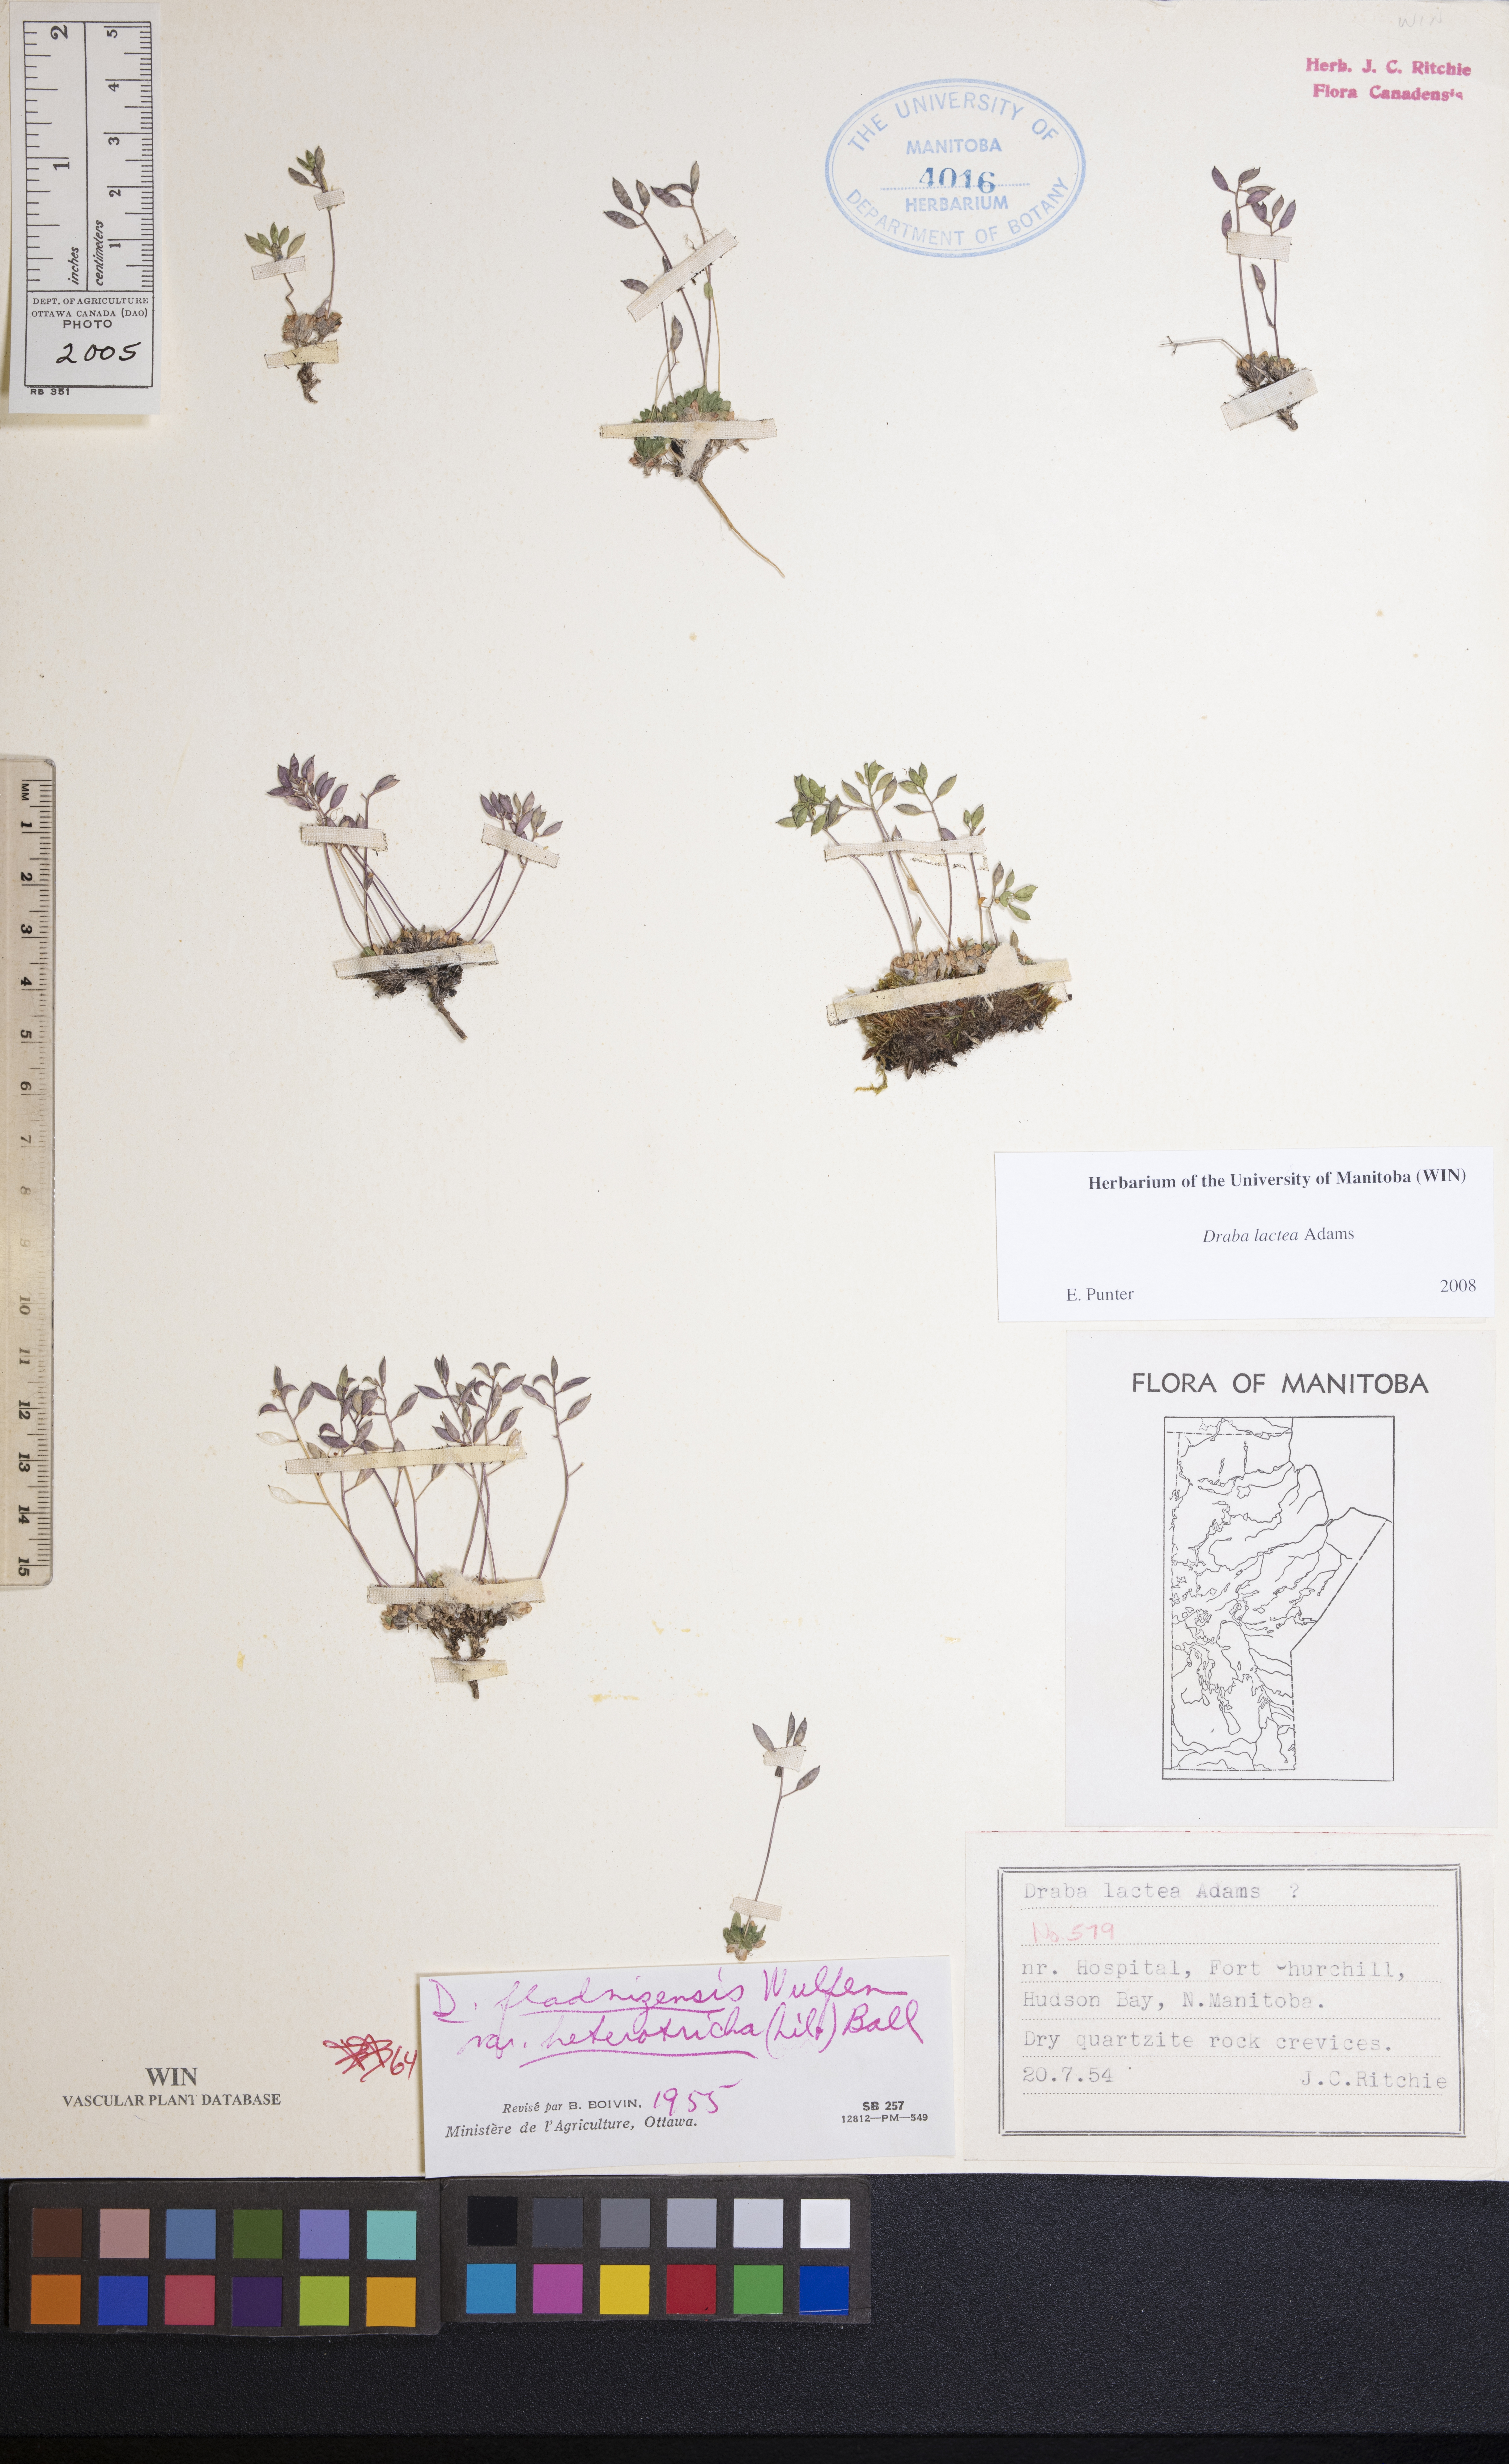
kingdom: Plantae
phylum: Tracheophyta
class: Magnoliopsida
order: Brassicales
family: Brassicaceae
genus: Draba
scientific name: Draba lactea
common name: Milky draba
